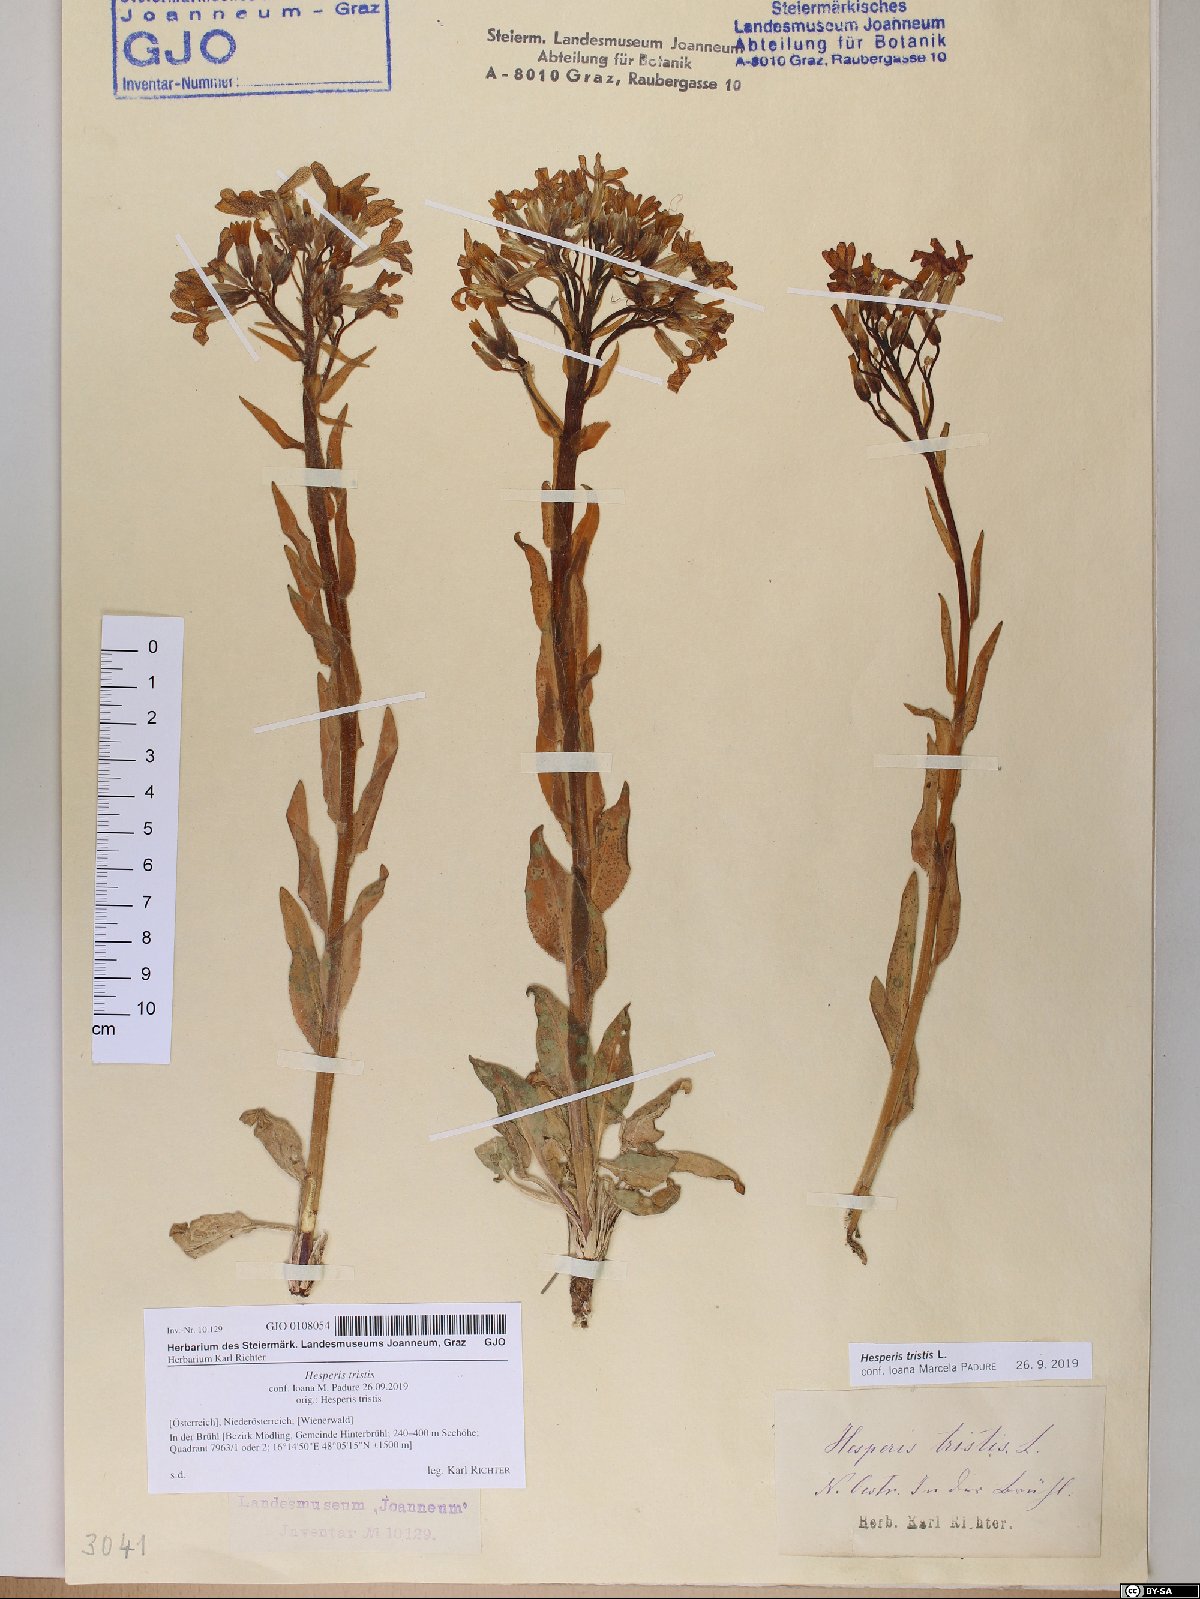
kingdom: Plantae
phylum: Tracheophyta
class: Magnoliopsida
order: Brassicales
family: Brassicaceae
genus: Hesperis
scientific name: Hesperis tristis
